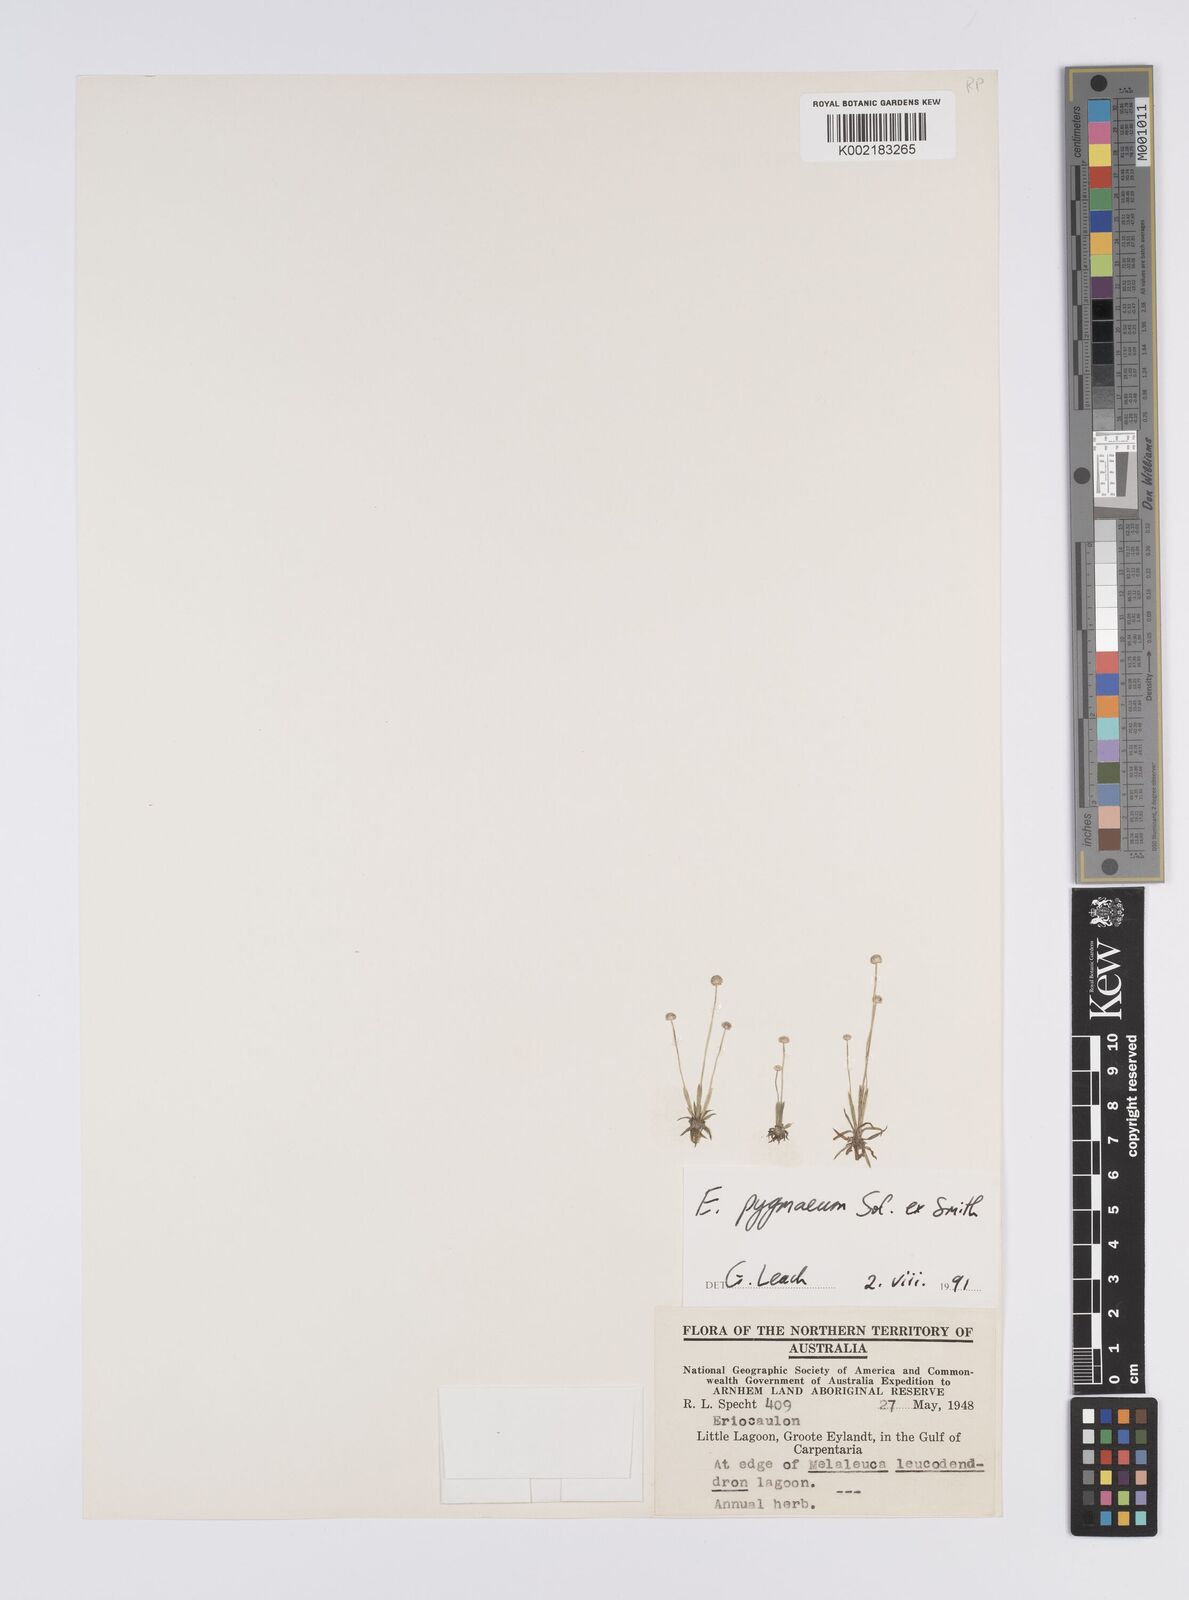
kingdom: Plantae
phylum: Tracheophyta
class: Liliopsida
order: Poales
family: Eriocaulaceae
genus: Paepalanthus
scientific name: Paepalanthus bifidus
